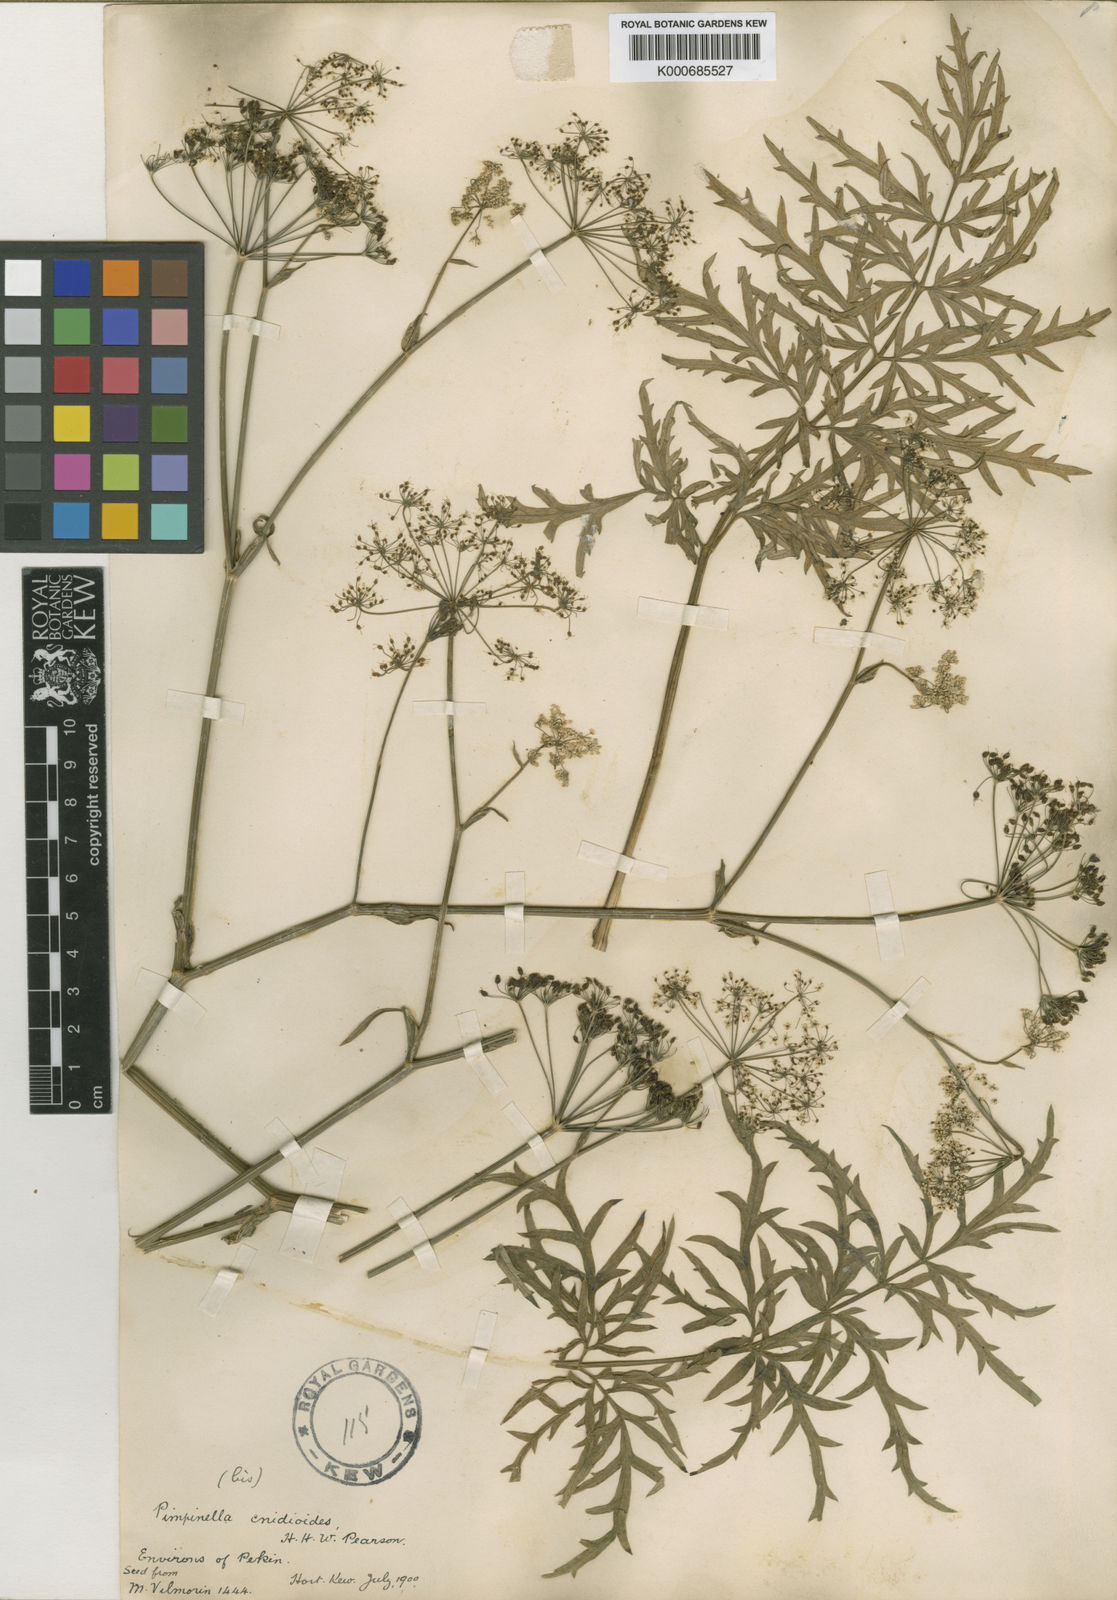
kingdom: Plantae
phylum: Tracheophyta
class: Magnoliopsida
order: Apiales
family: Apiaceae
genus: Pimpinella
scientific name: Pimpinella
